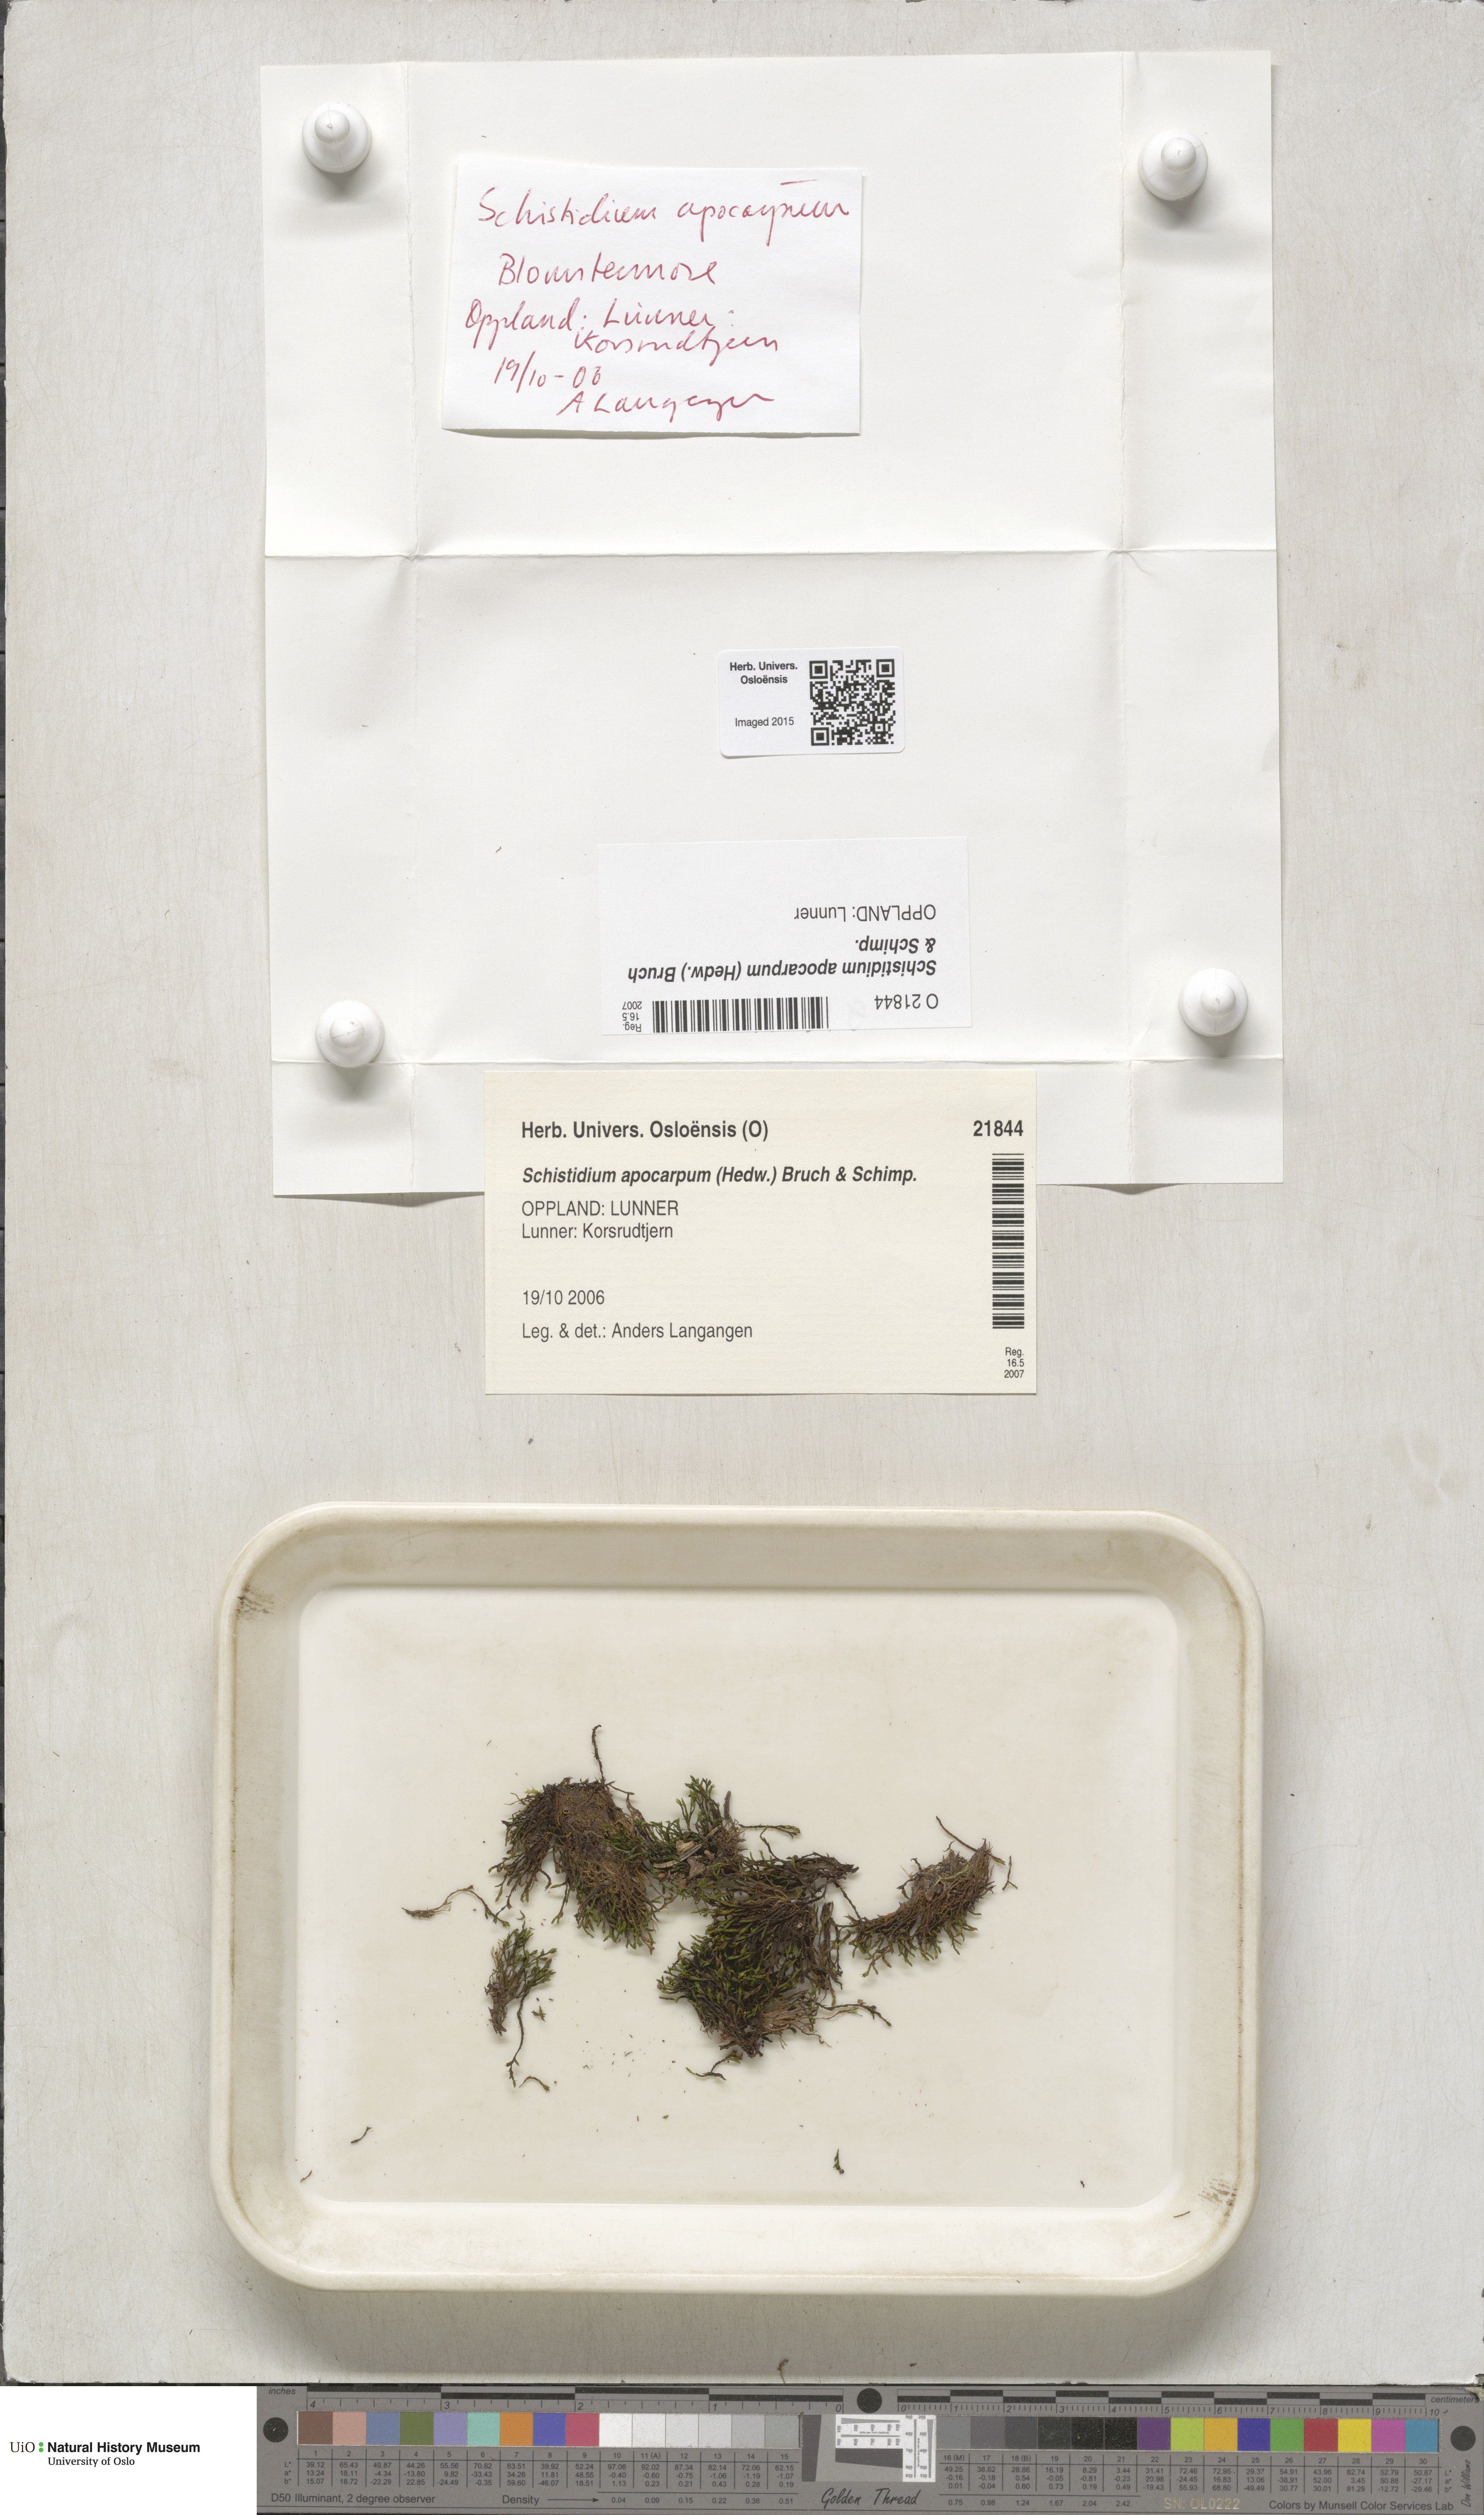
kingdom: Plantae
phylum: Bryophyta
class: Bryopsida
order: Grimmiales
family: Grimmiaceae
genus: Schistidium
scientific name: Schistidium apocarpum
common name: Radiate bloom moss
